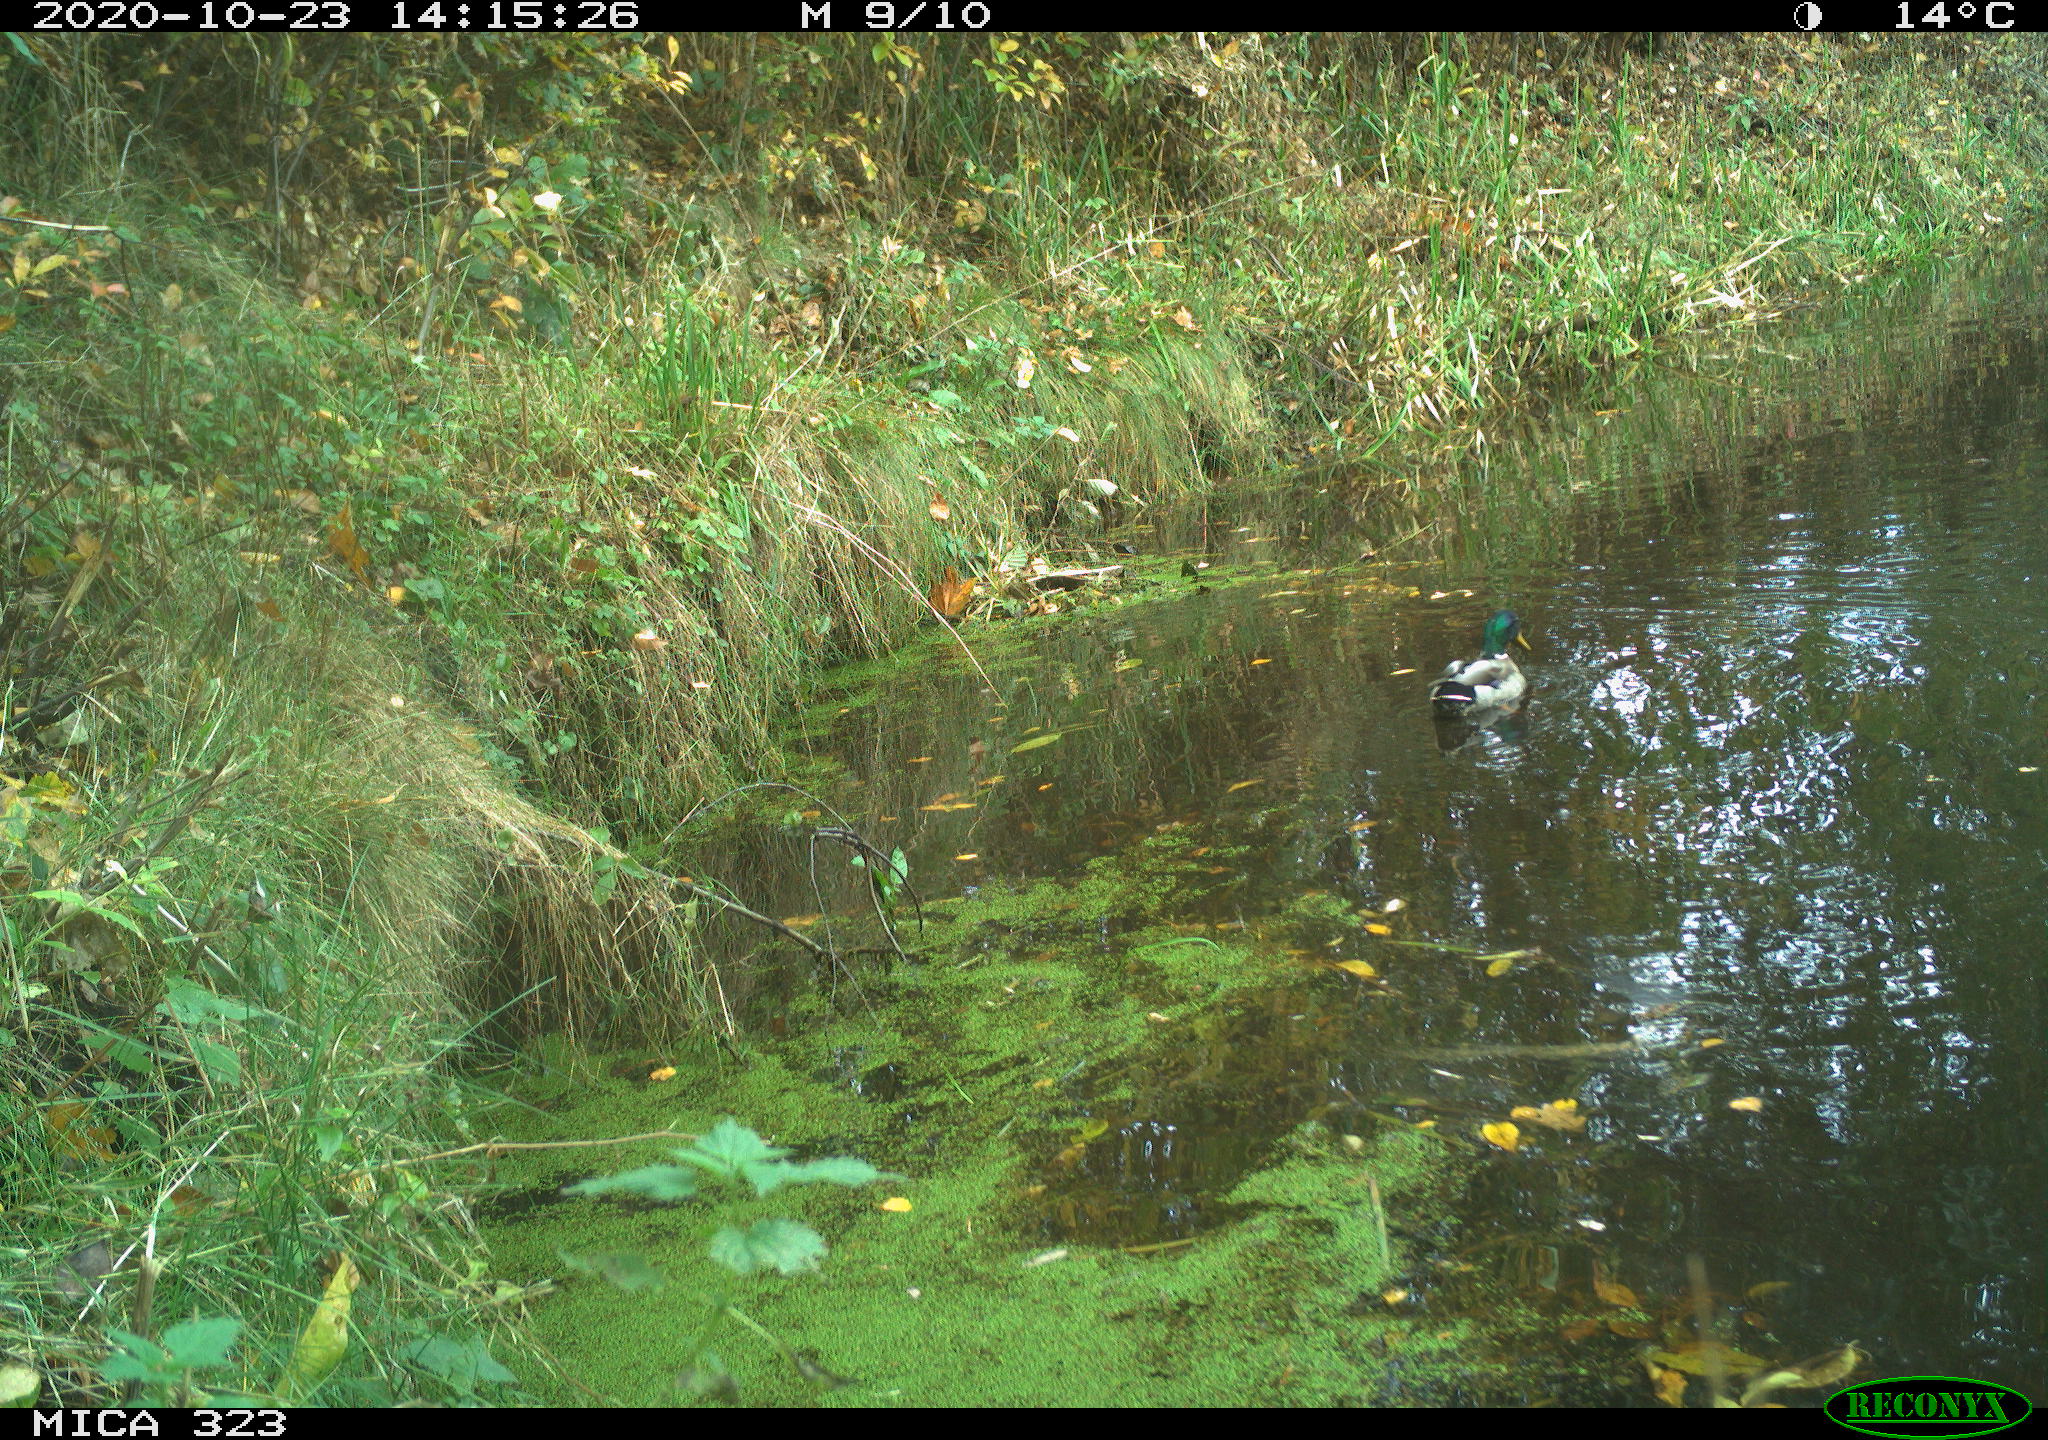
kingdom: Animalia
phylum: Chordata
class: Aves
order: Anseriformes
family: Anatidae
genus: Anas
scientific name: Anas platyrhynchos
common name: Mallard
